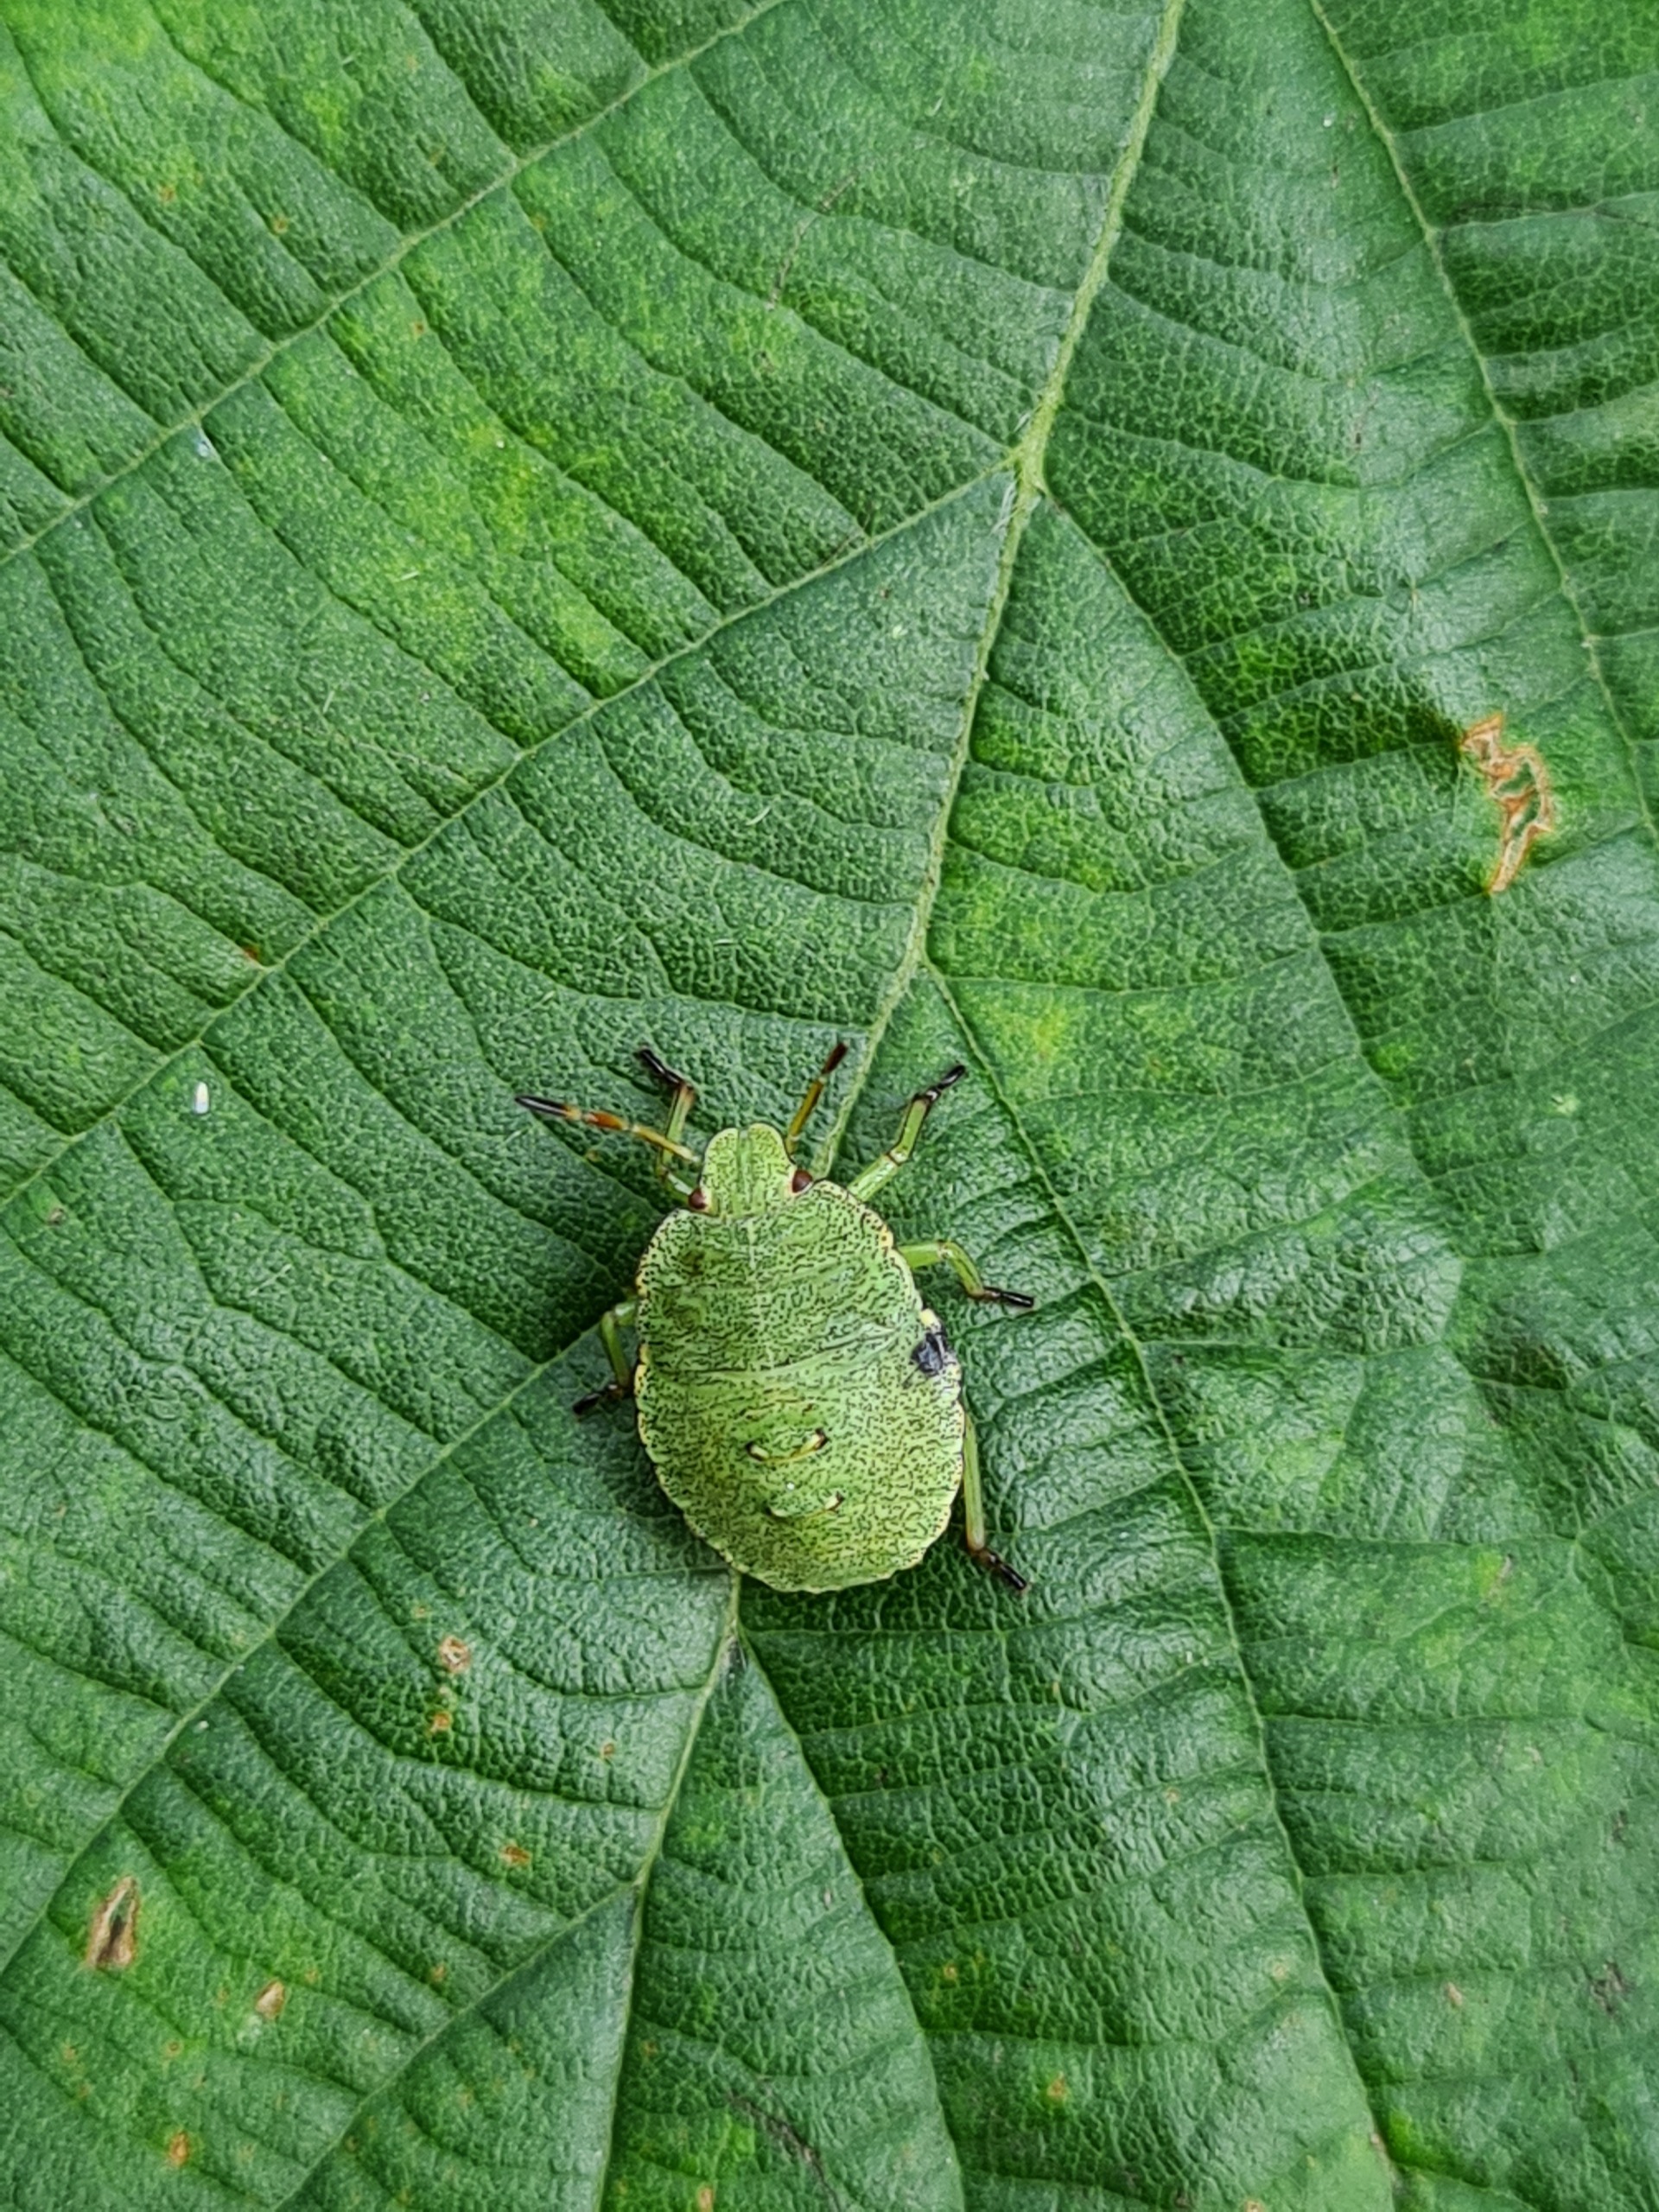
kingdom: Animalia
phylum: Arthropoda
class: Insecta
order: Hemiptera
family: Pentatomidae
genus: Palomena
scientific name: Palomena prasina
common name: Grøn bredtæge
